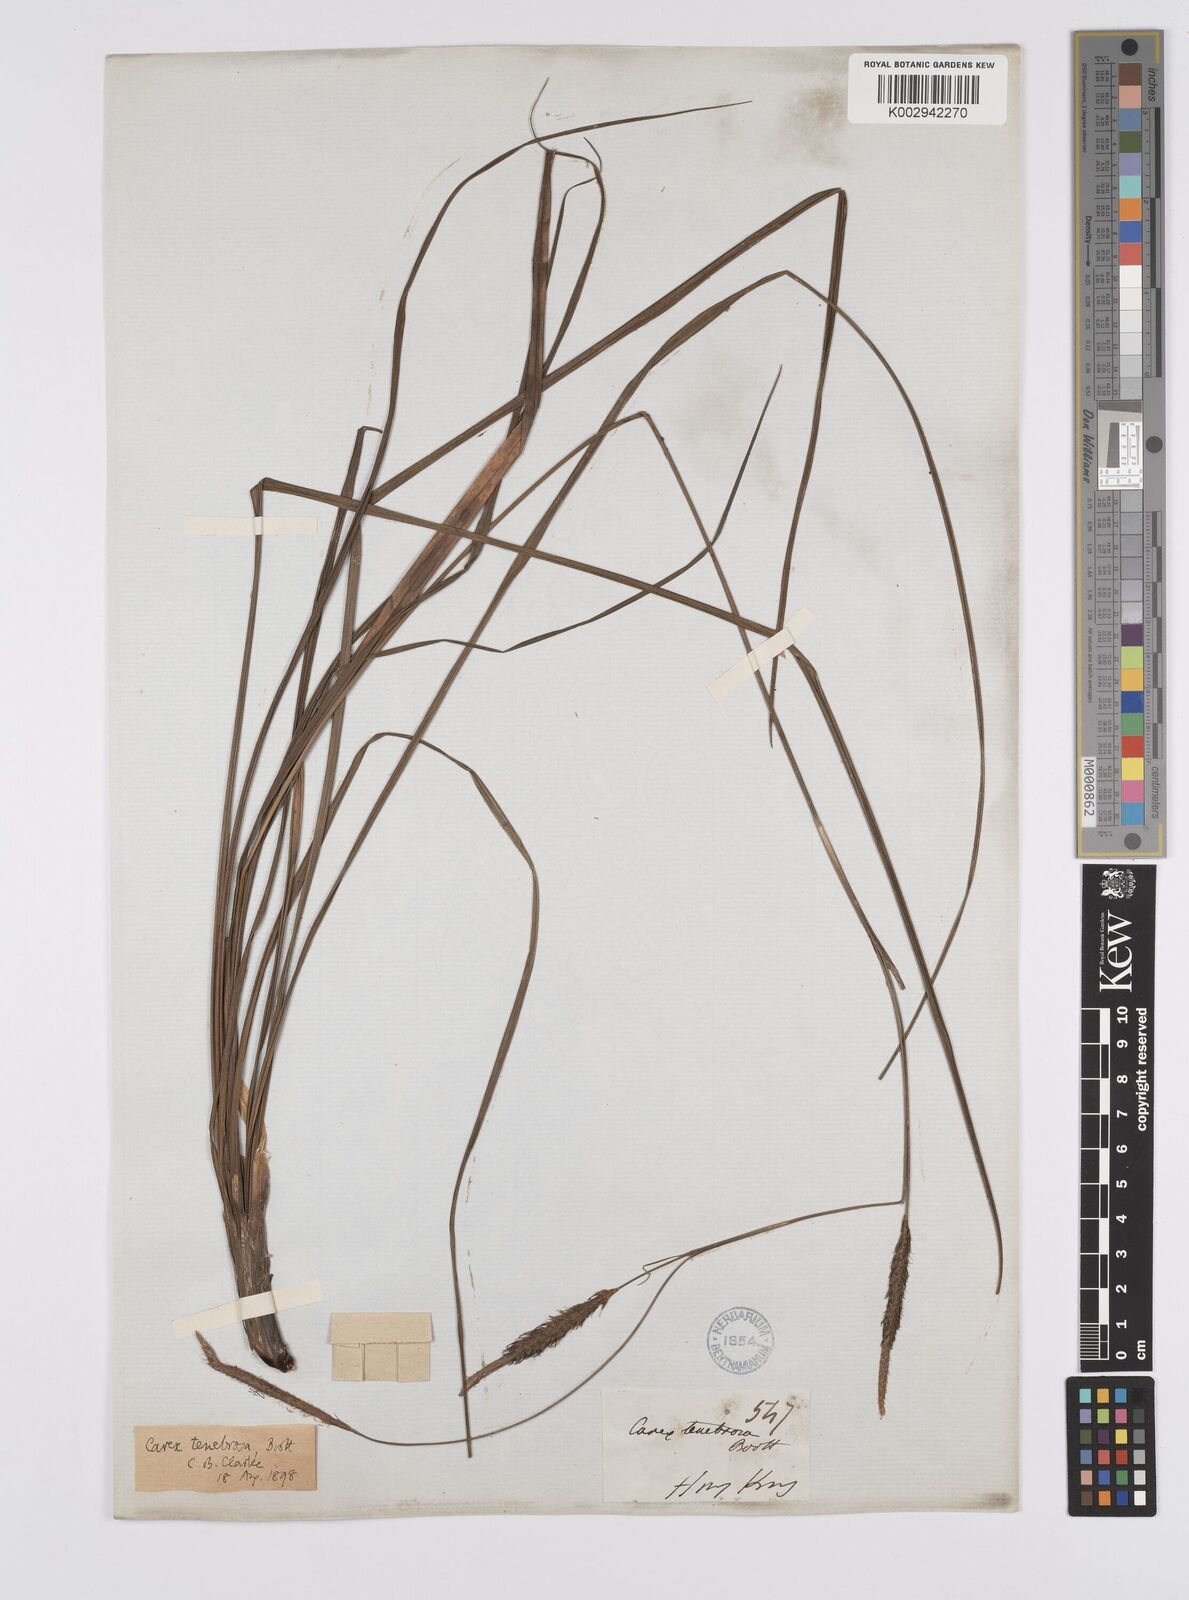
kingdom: Plantae
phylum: Tracheophyta
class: Liliopsida
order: Poales
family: Cyperaceae
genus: Carex
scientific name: Carex tenebrosa
